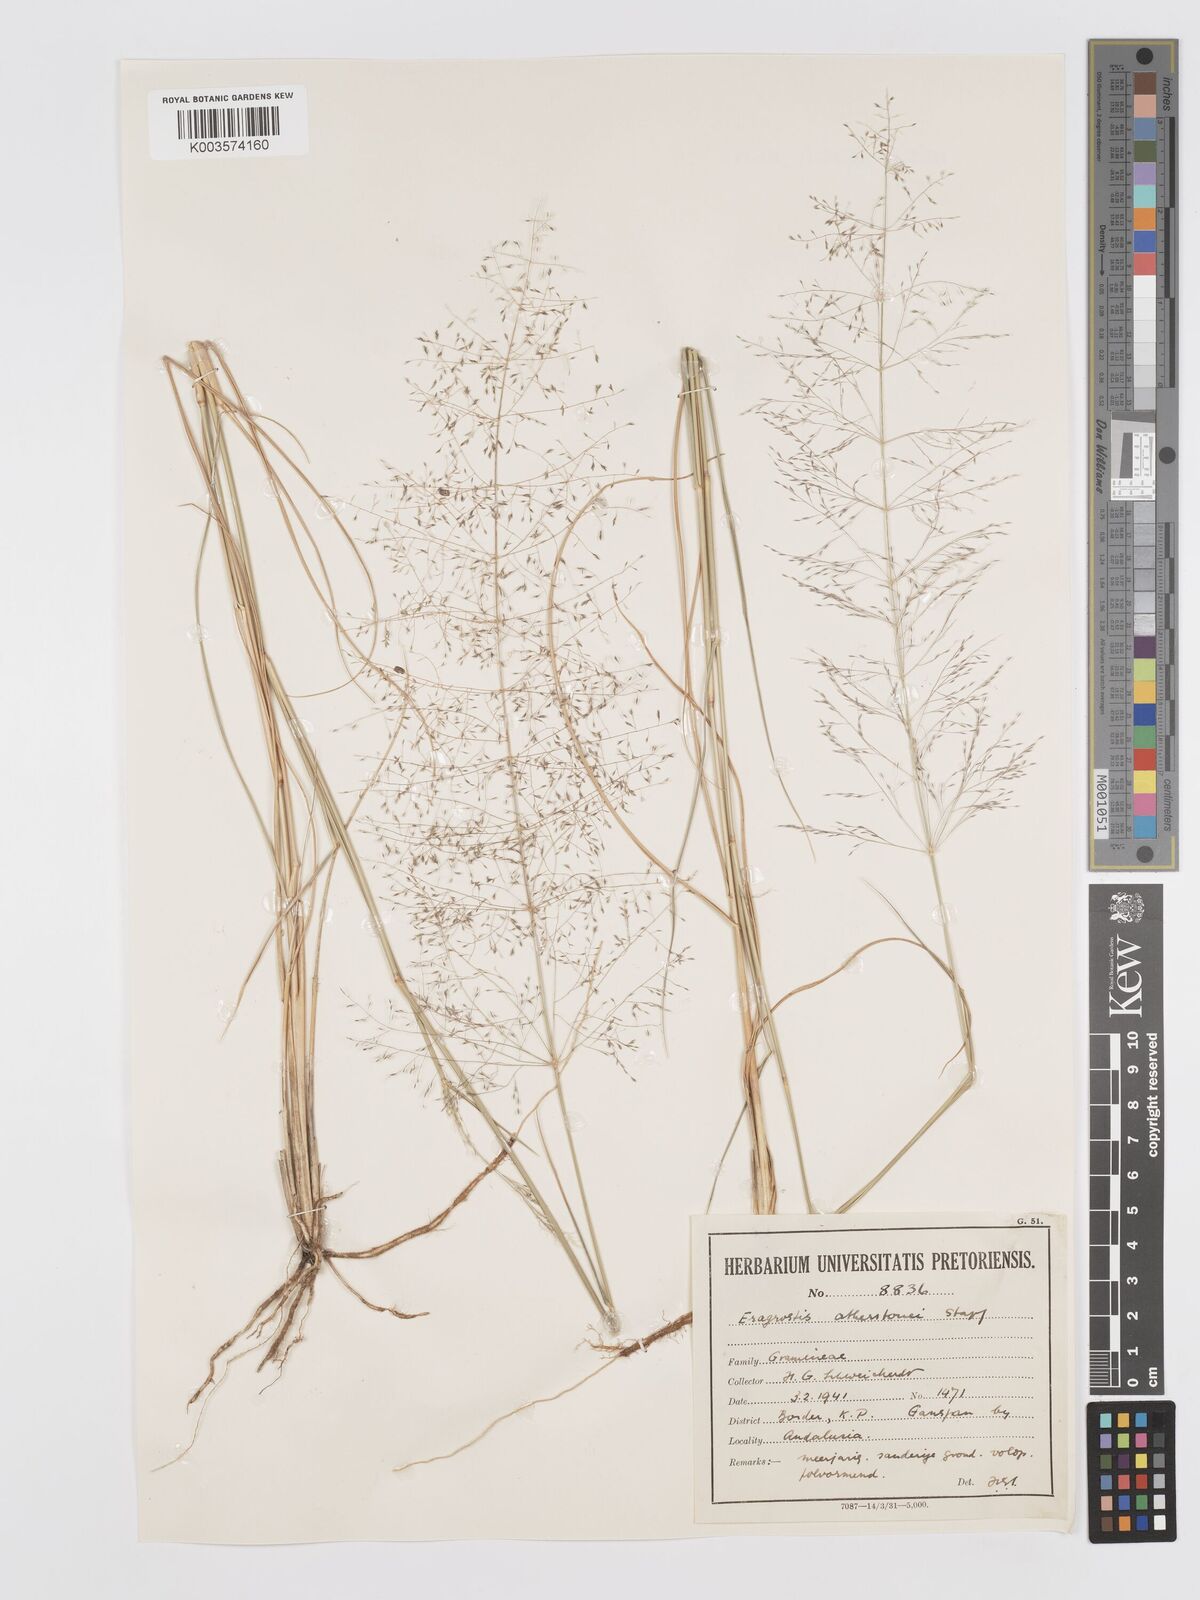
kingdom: Plantae
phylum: Tracheophyta
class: Liliopsida
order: Poales
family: Poaceae
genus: Eragrostis
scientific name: Eragrostis cylindriflora
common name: Cylinderflower lovegrass
